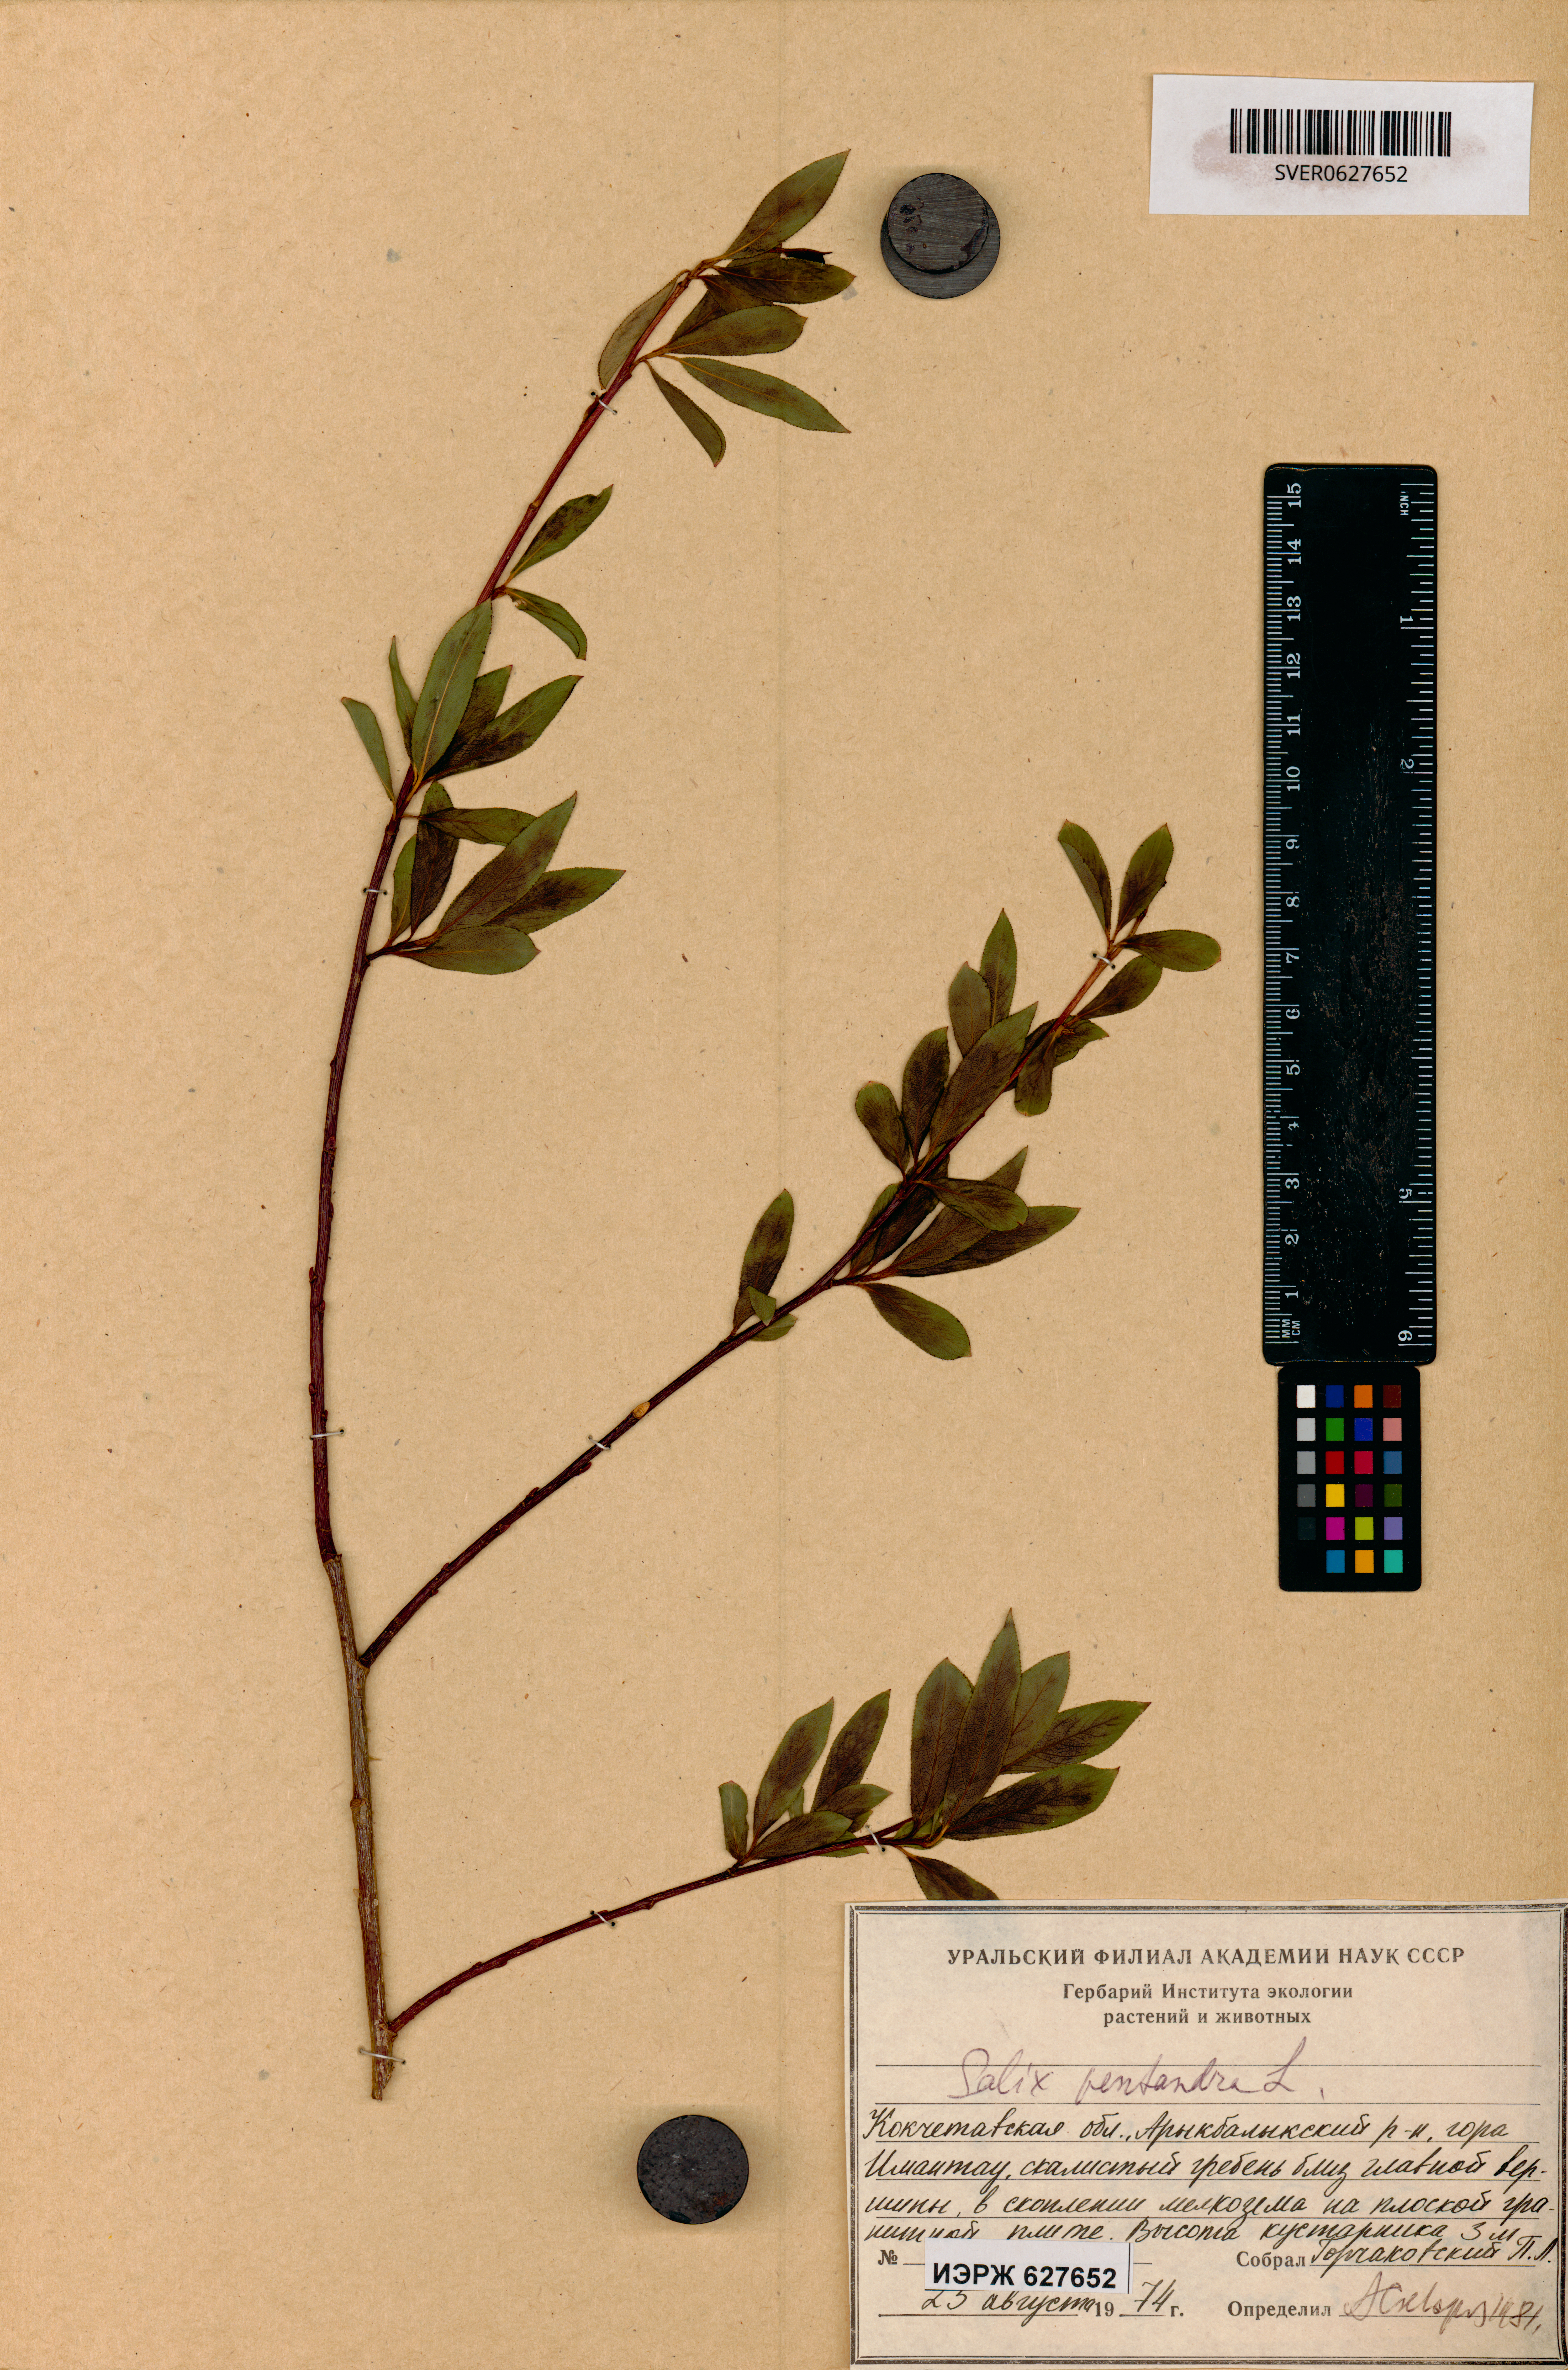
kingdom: Plantae
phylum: Tracheophyta
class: Magnoliopsida
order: Malpighiales
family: Salicaceae
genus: Salix
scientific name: Salix pentandra
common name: Bay willow
